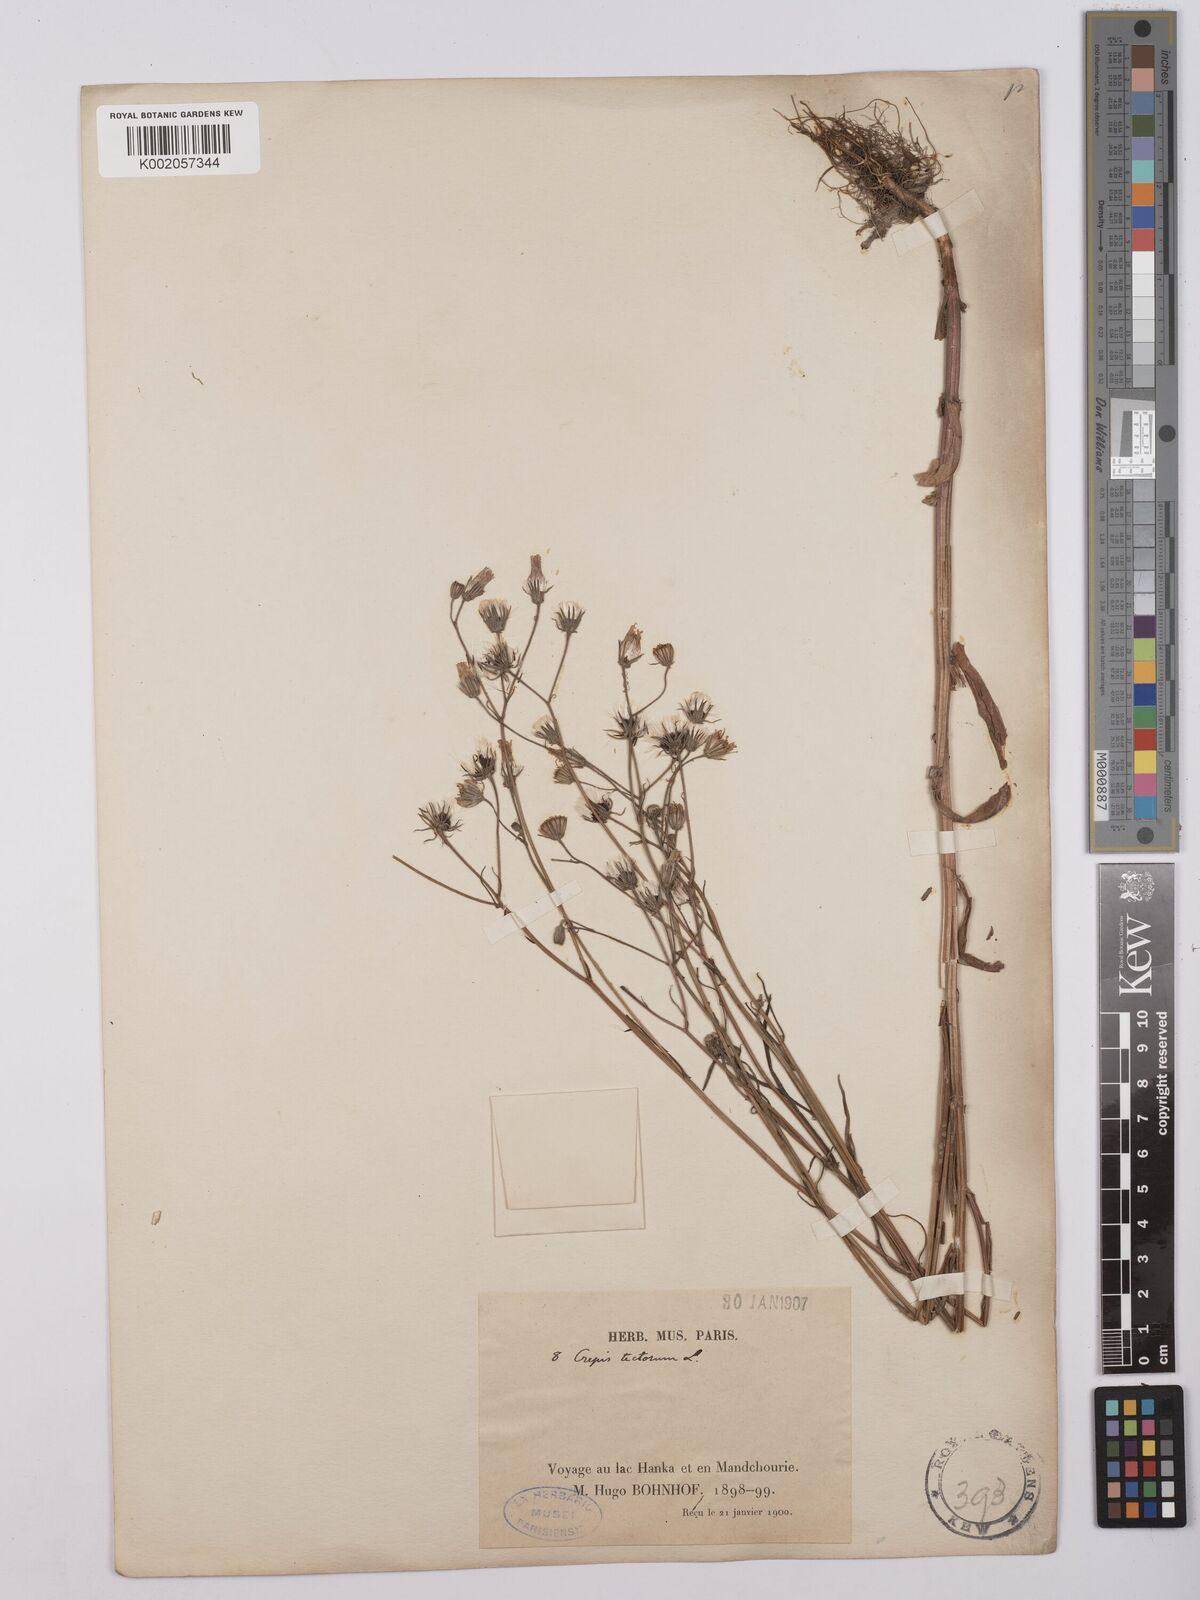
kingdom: Plantae
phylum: Tracheophyta
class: Magnoliopsida
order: Asterales
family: Asteraceae
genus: Crepis
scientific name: Crepis tectorum
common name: Narrow-leaved hawk's-beard
